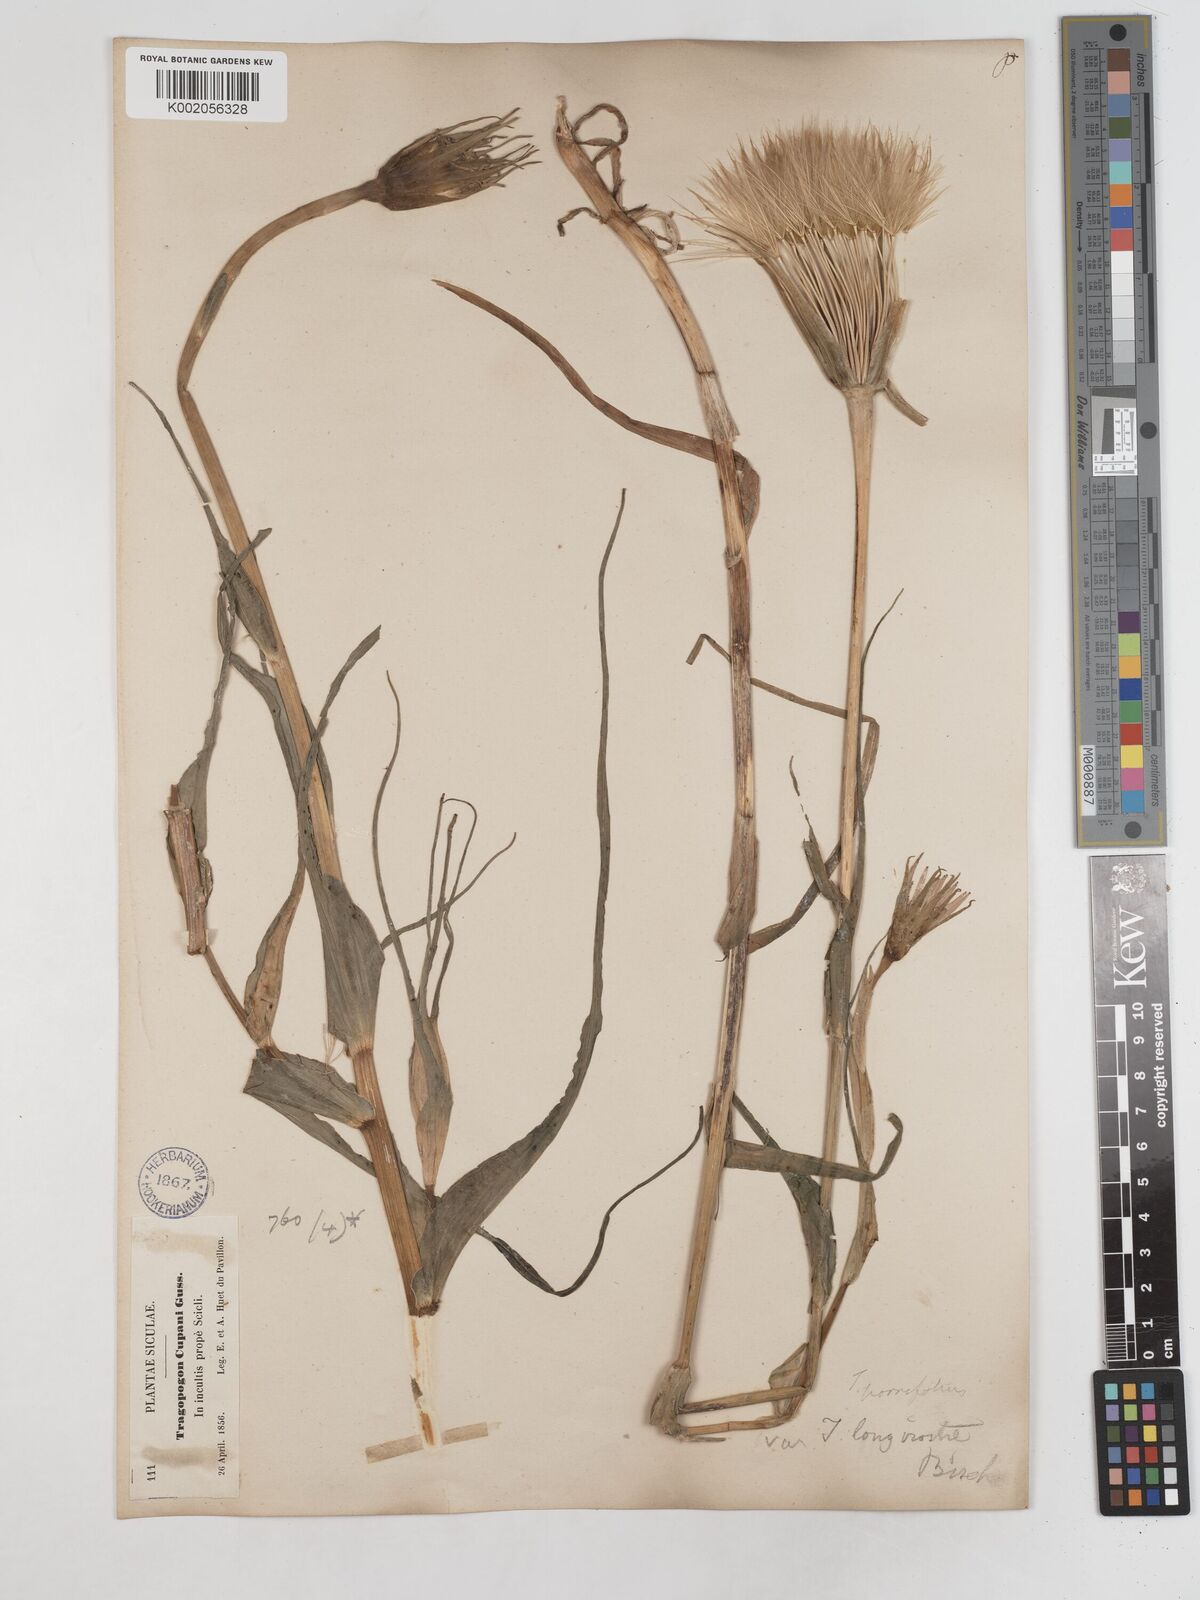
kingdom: Plantae
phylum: Tracheophyta
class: Magnoliopsida
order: Asterales
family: Asteraceae
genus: Tragopogon
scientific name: Tragopogon porrifolius
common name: Salsify
